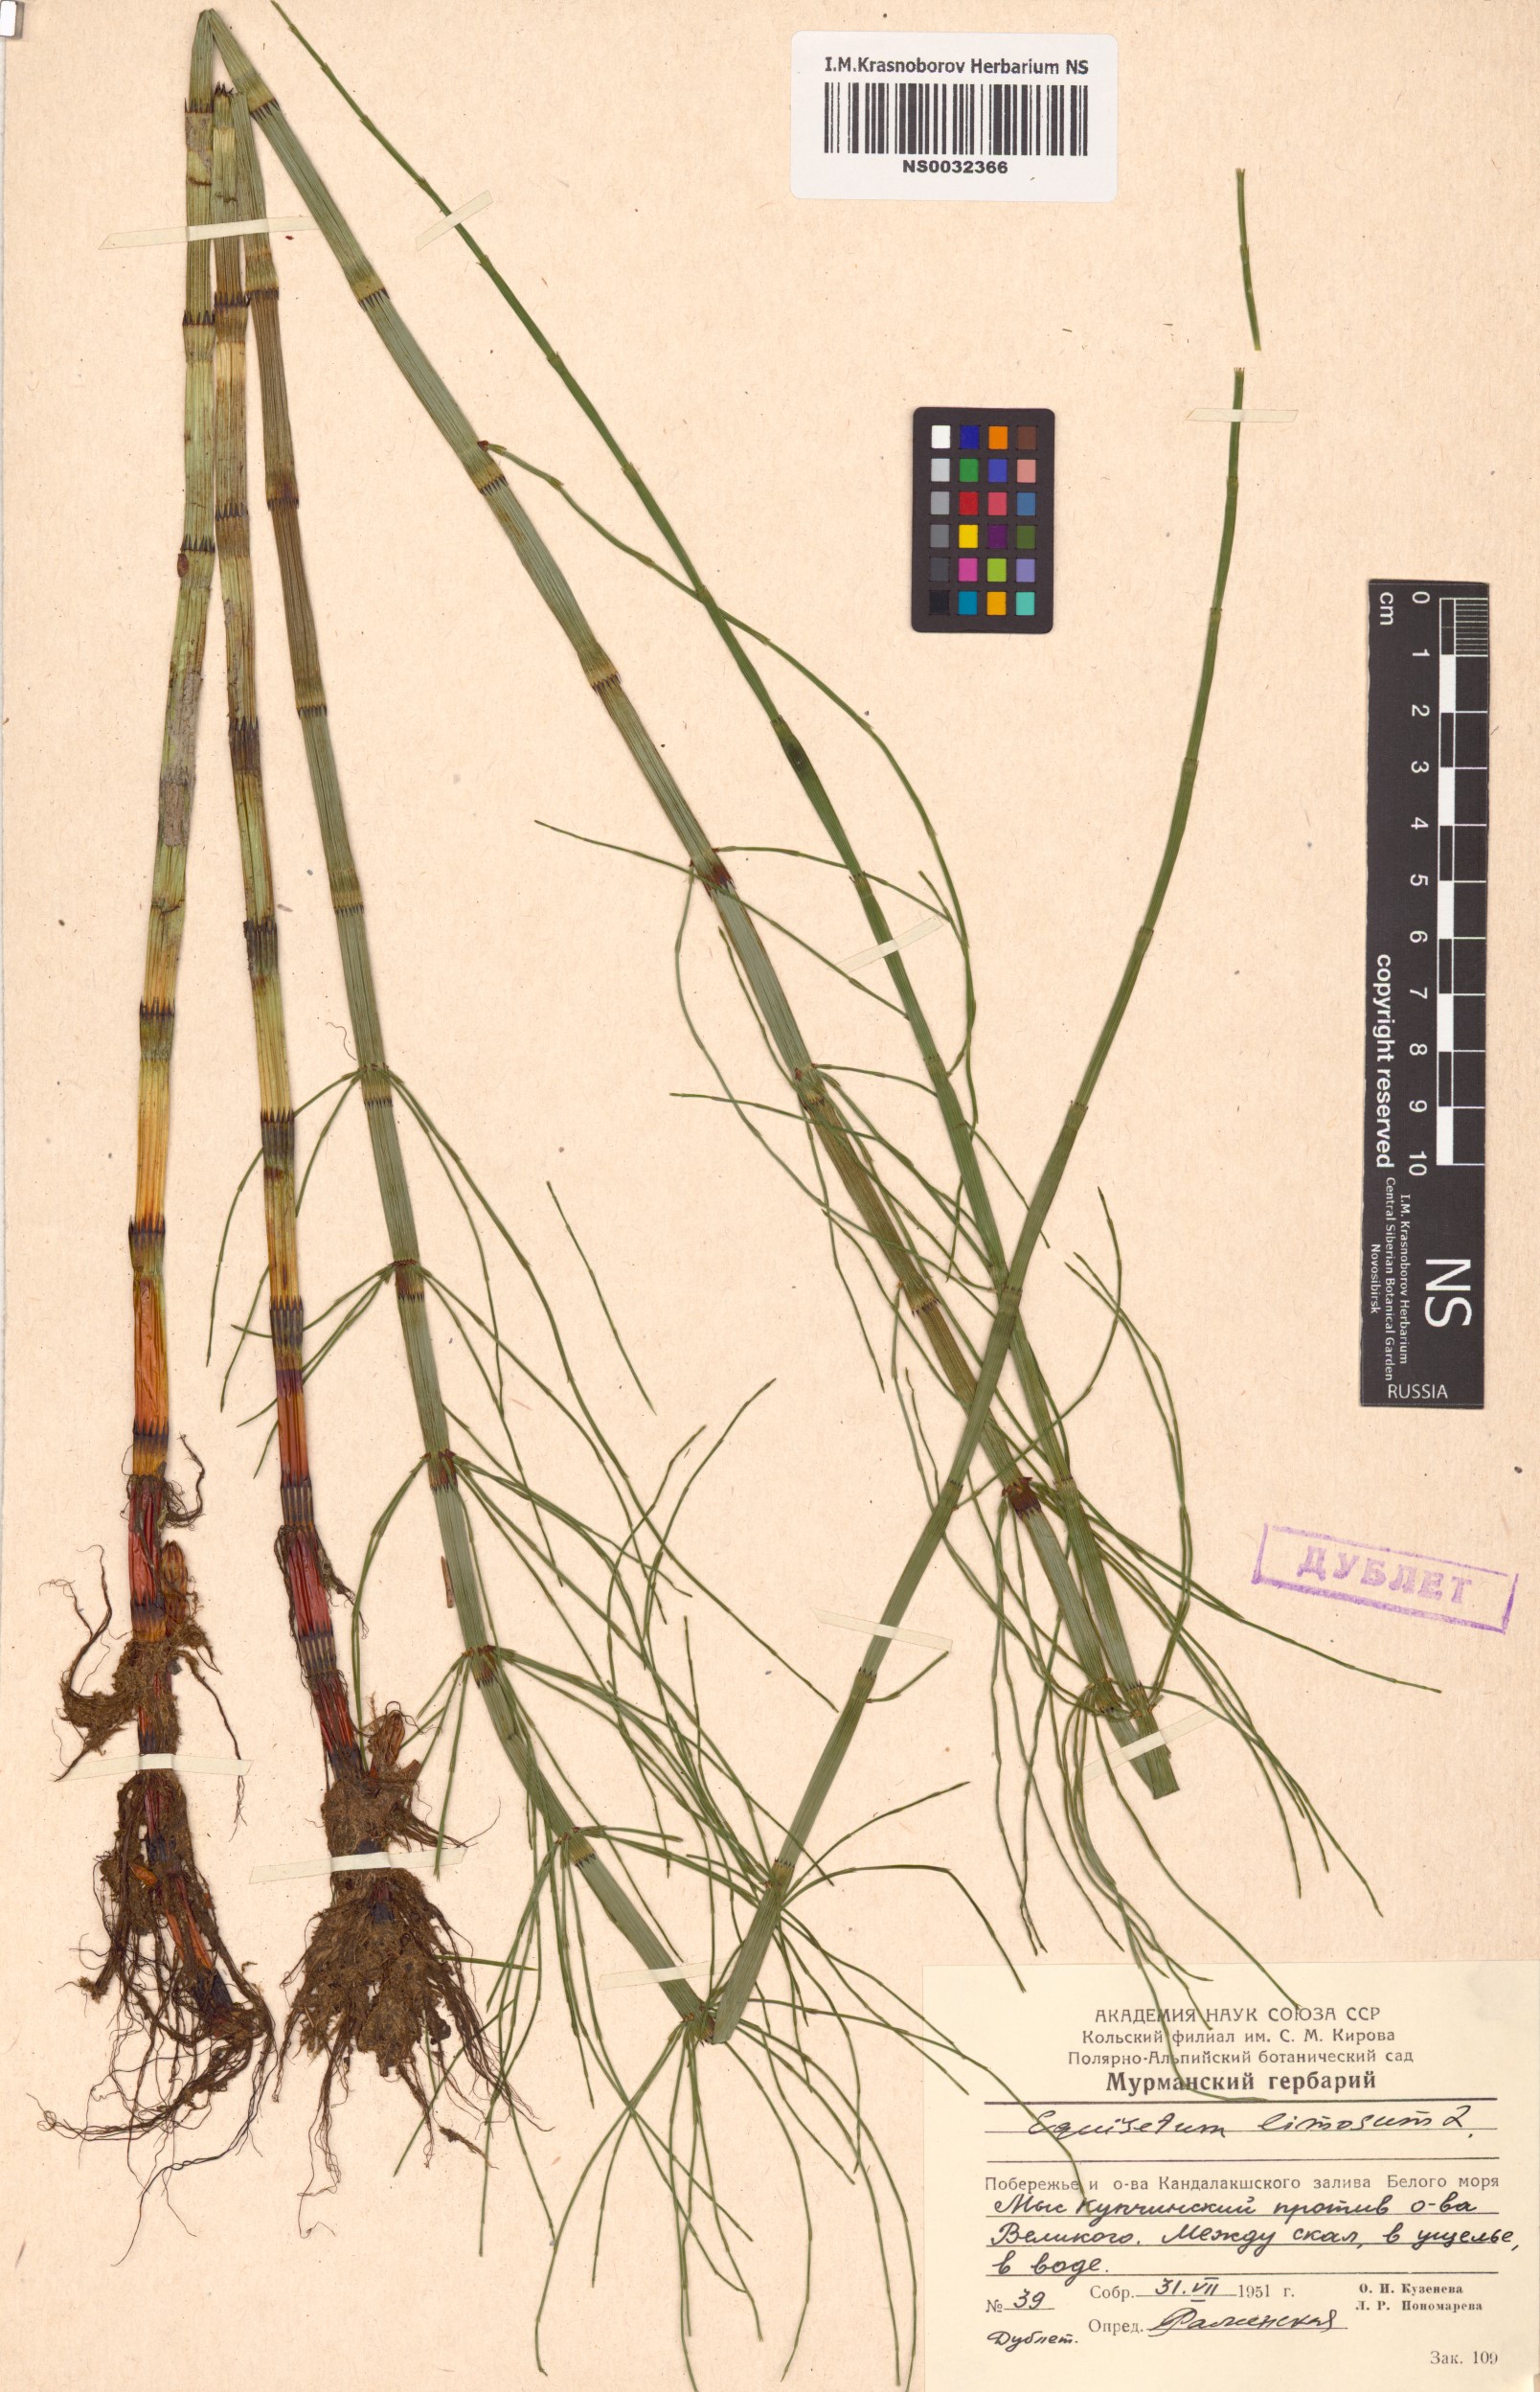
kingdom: Plantae
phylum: Tracheophyta
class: Polypodiopsida
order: Equisetales
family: Equisetaceae
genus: Equisetum
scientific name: Equisetum fluviatile
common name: Water horsetail
